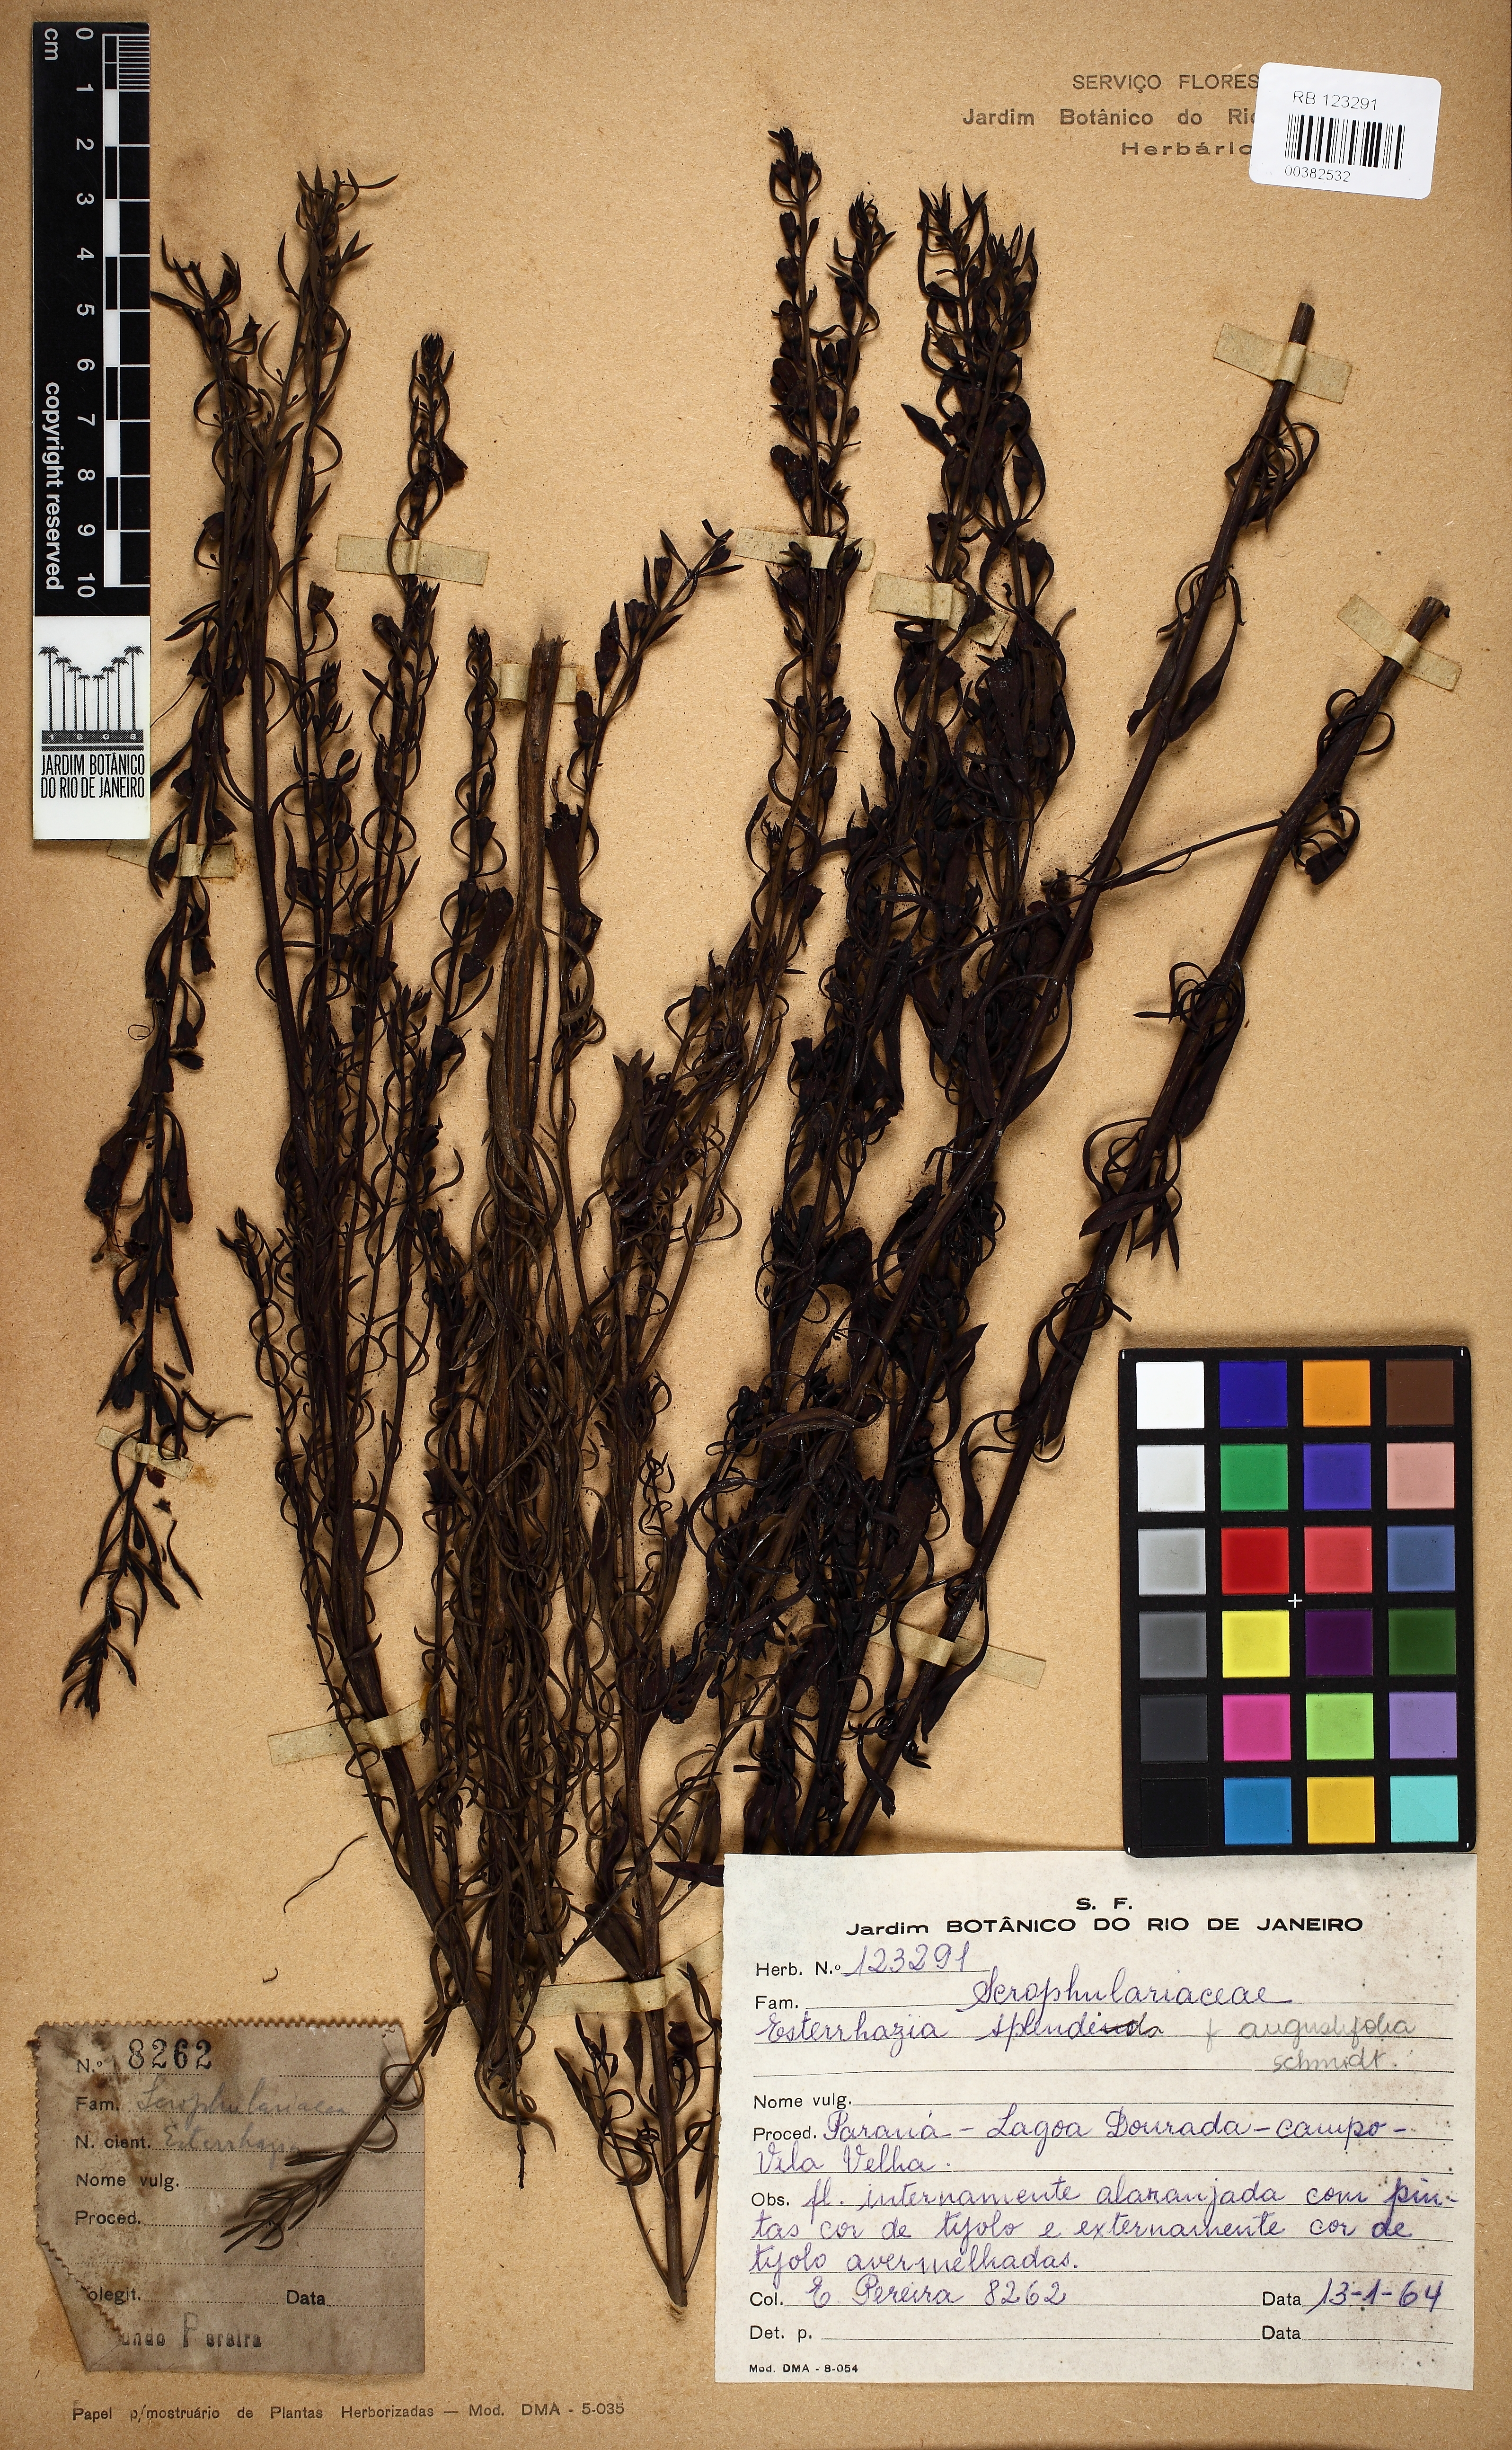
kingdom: Plantae
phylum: Tracheophyta
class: Magnoliopsida
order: Lamiales
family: Orobanchaceae
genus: Esterhazya
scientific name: Esterhazya splendida
